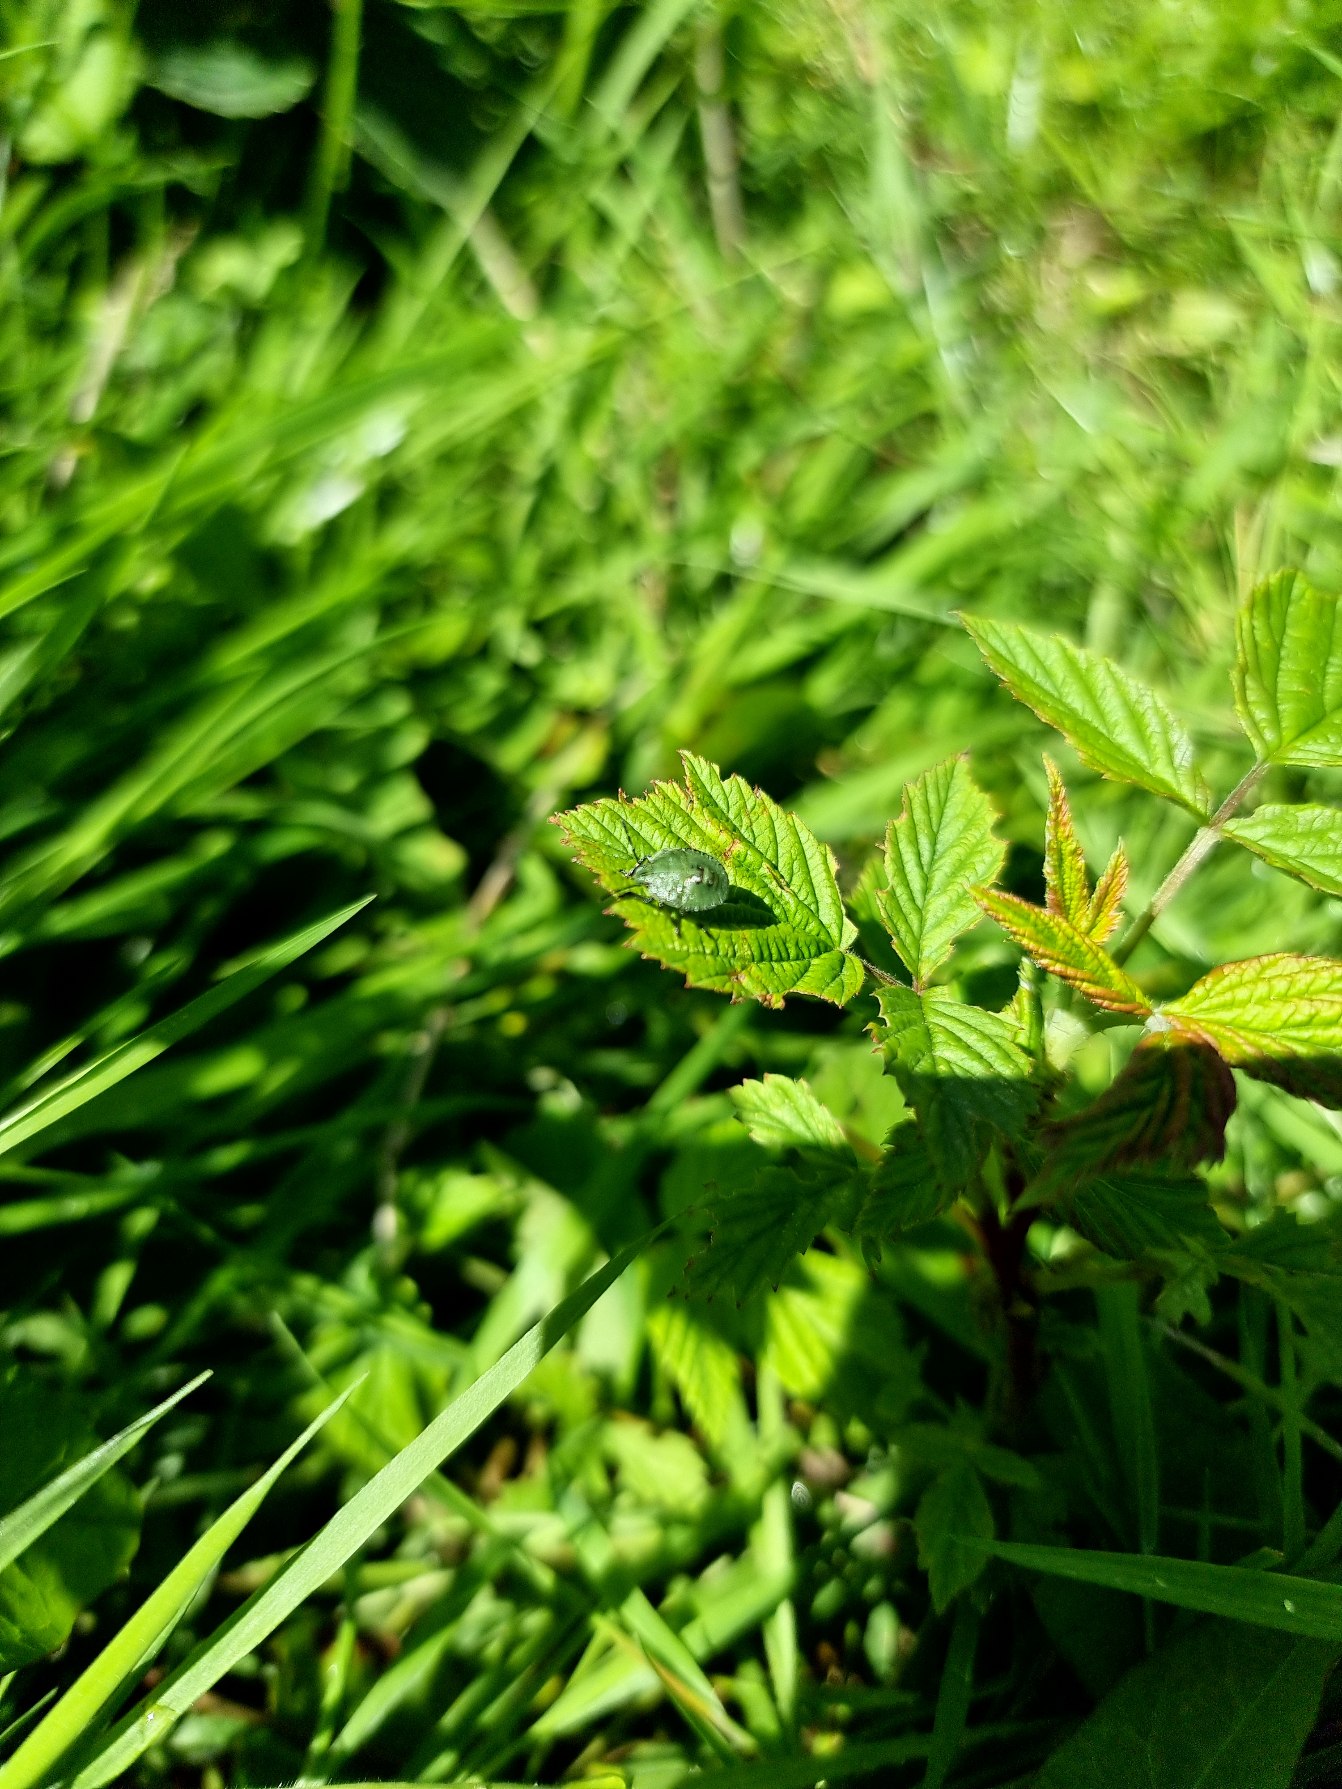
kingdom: Animalia
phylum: Arthropoda
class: Insecta
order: Hemiptera
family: Pentatomidae
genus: Palomena
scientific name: Palomena prasina
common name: Grøn bredtæge
